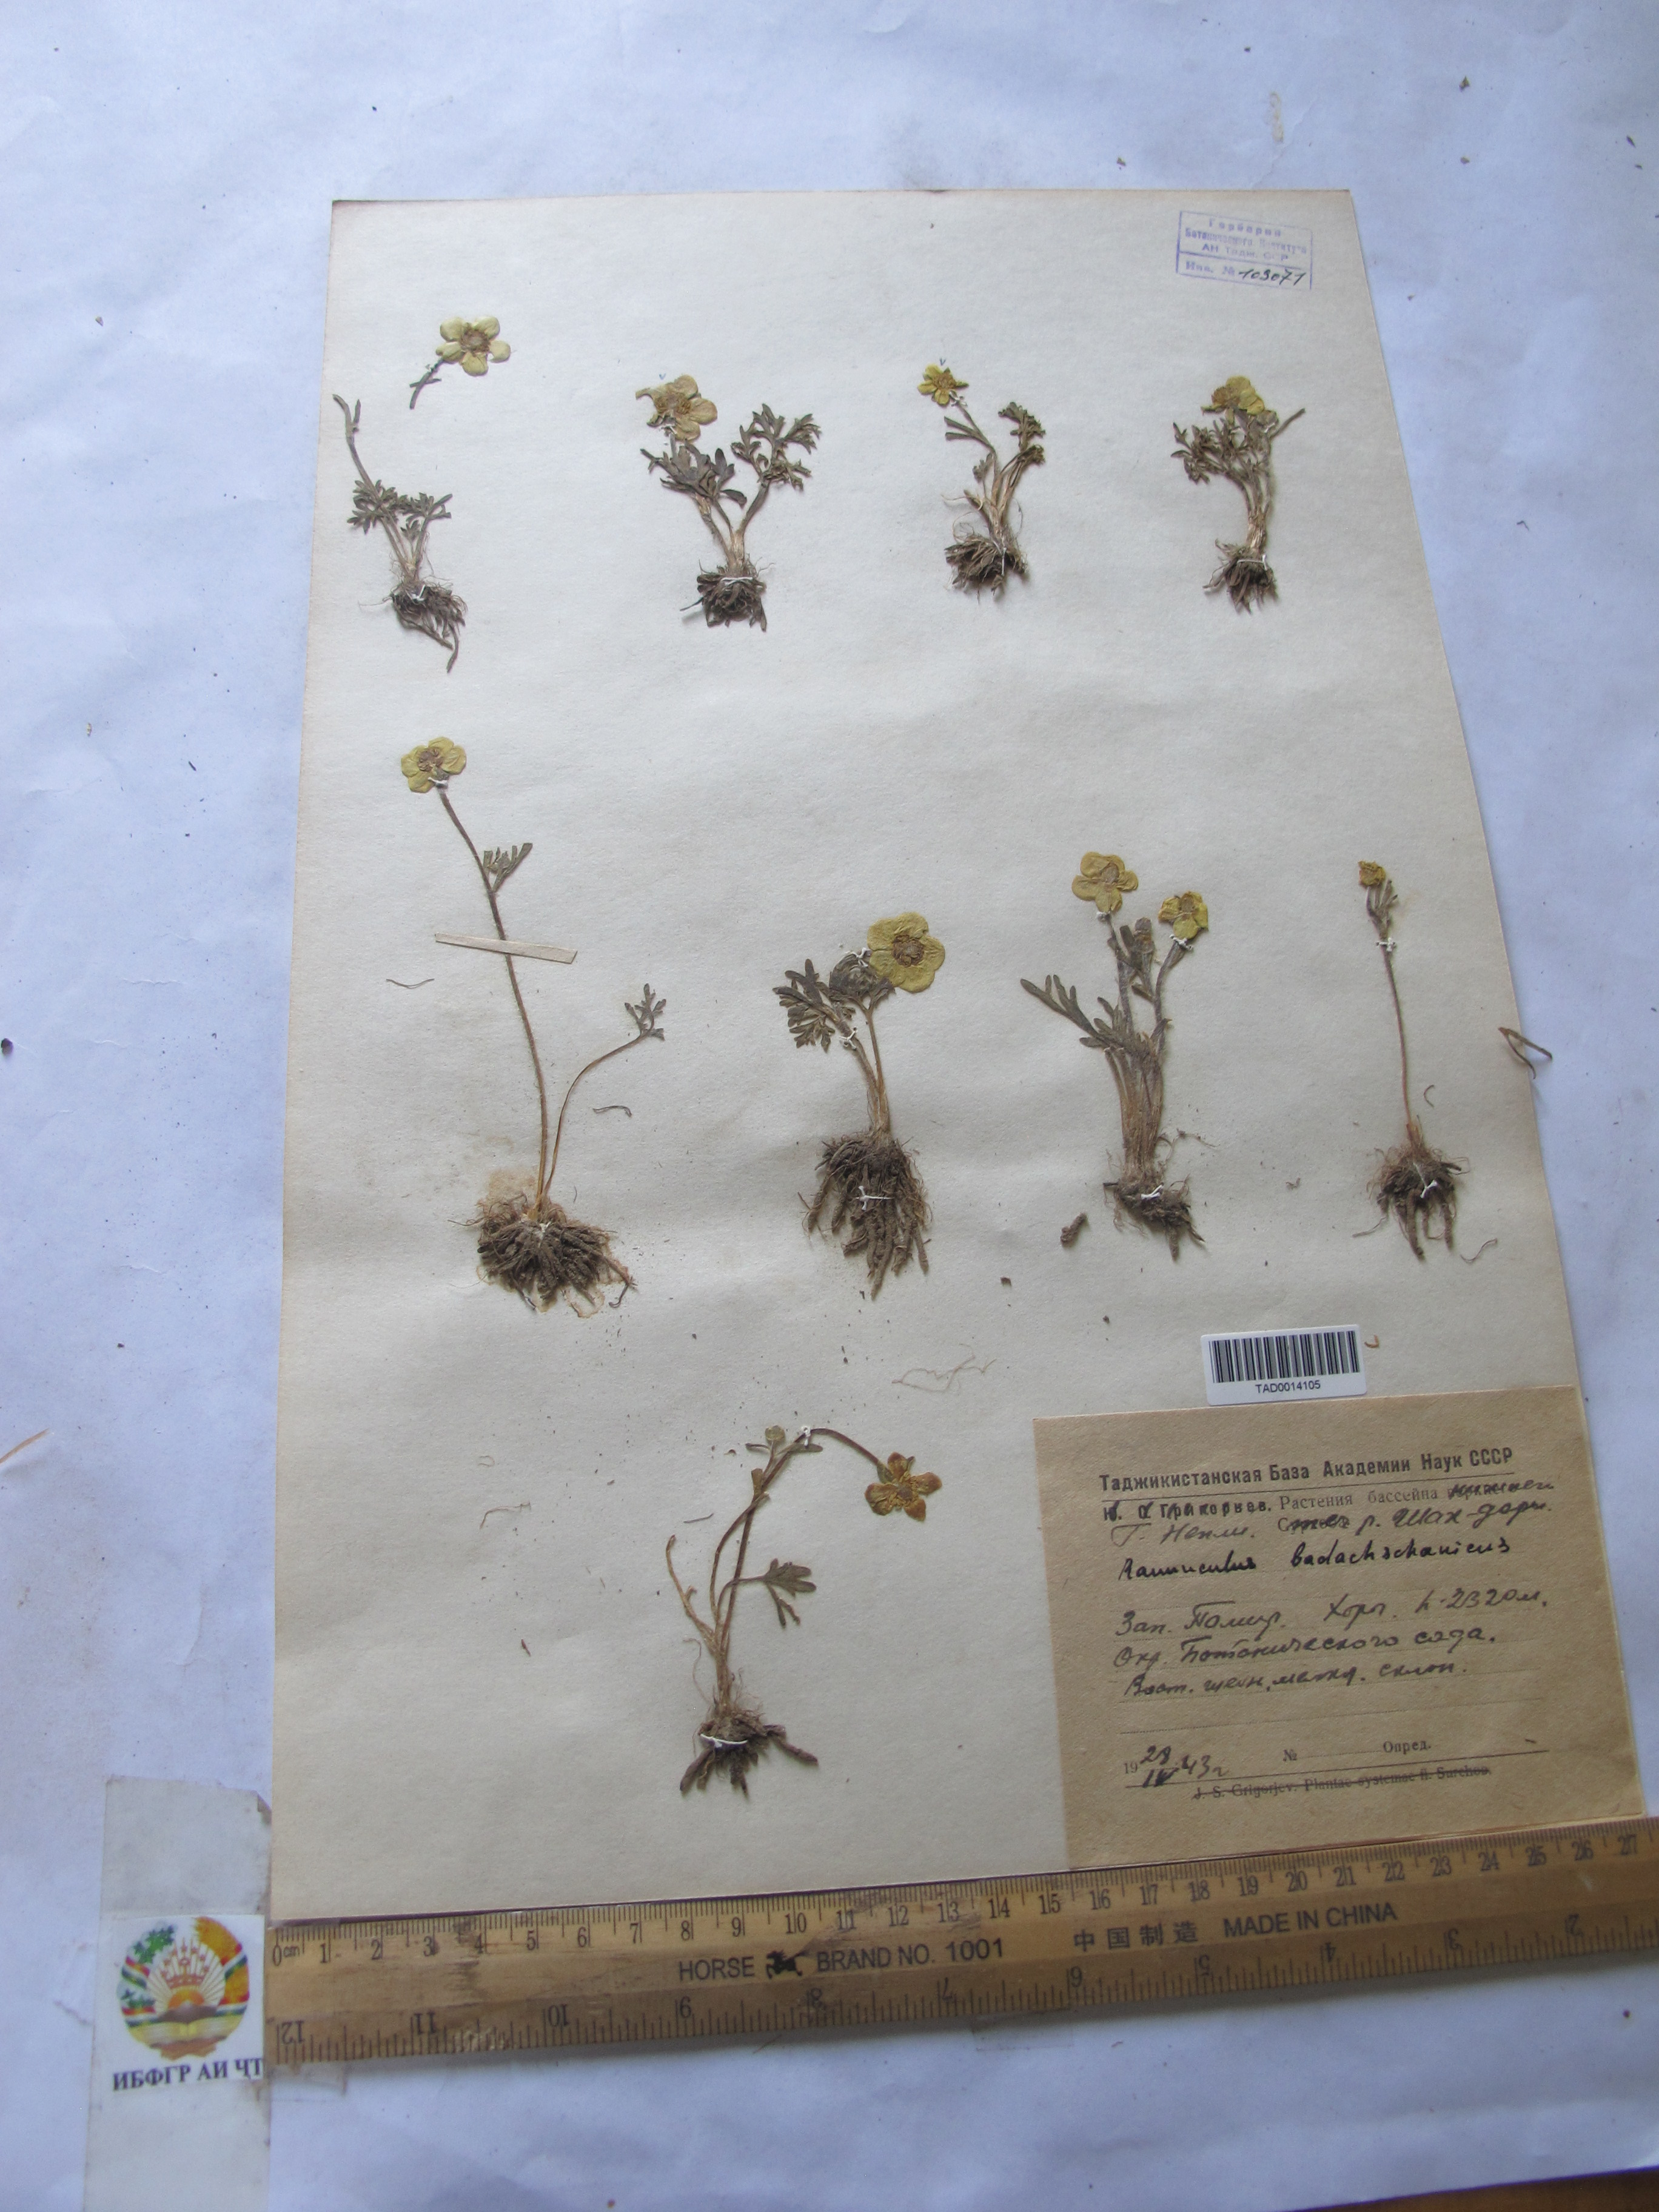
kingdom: Plantae
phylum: Tracheophyta
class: Magnoliopsida
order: Ranunculales
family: Ranunculaceae
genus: Ranunculus
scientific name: Ranunculus badachschanicus
